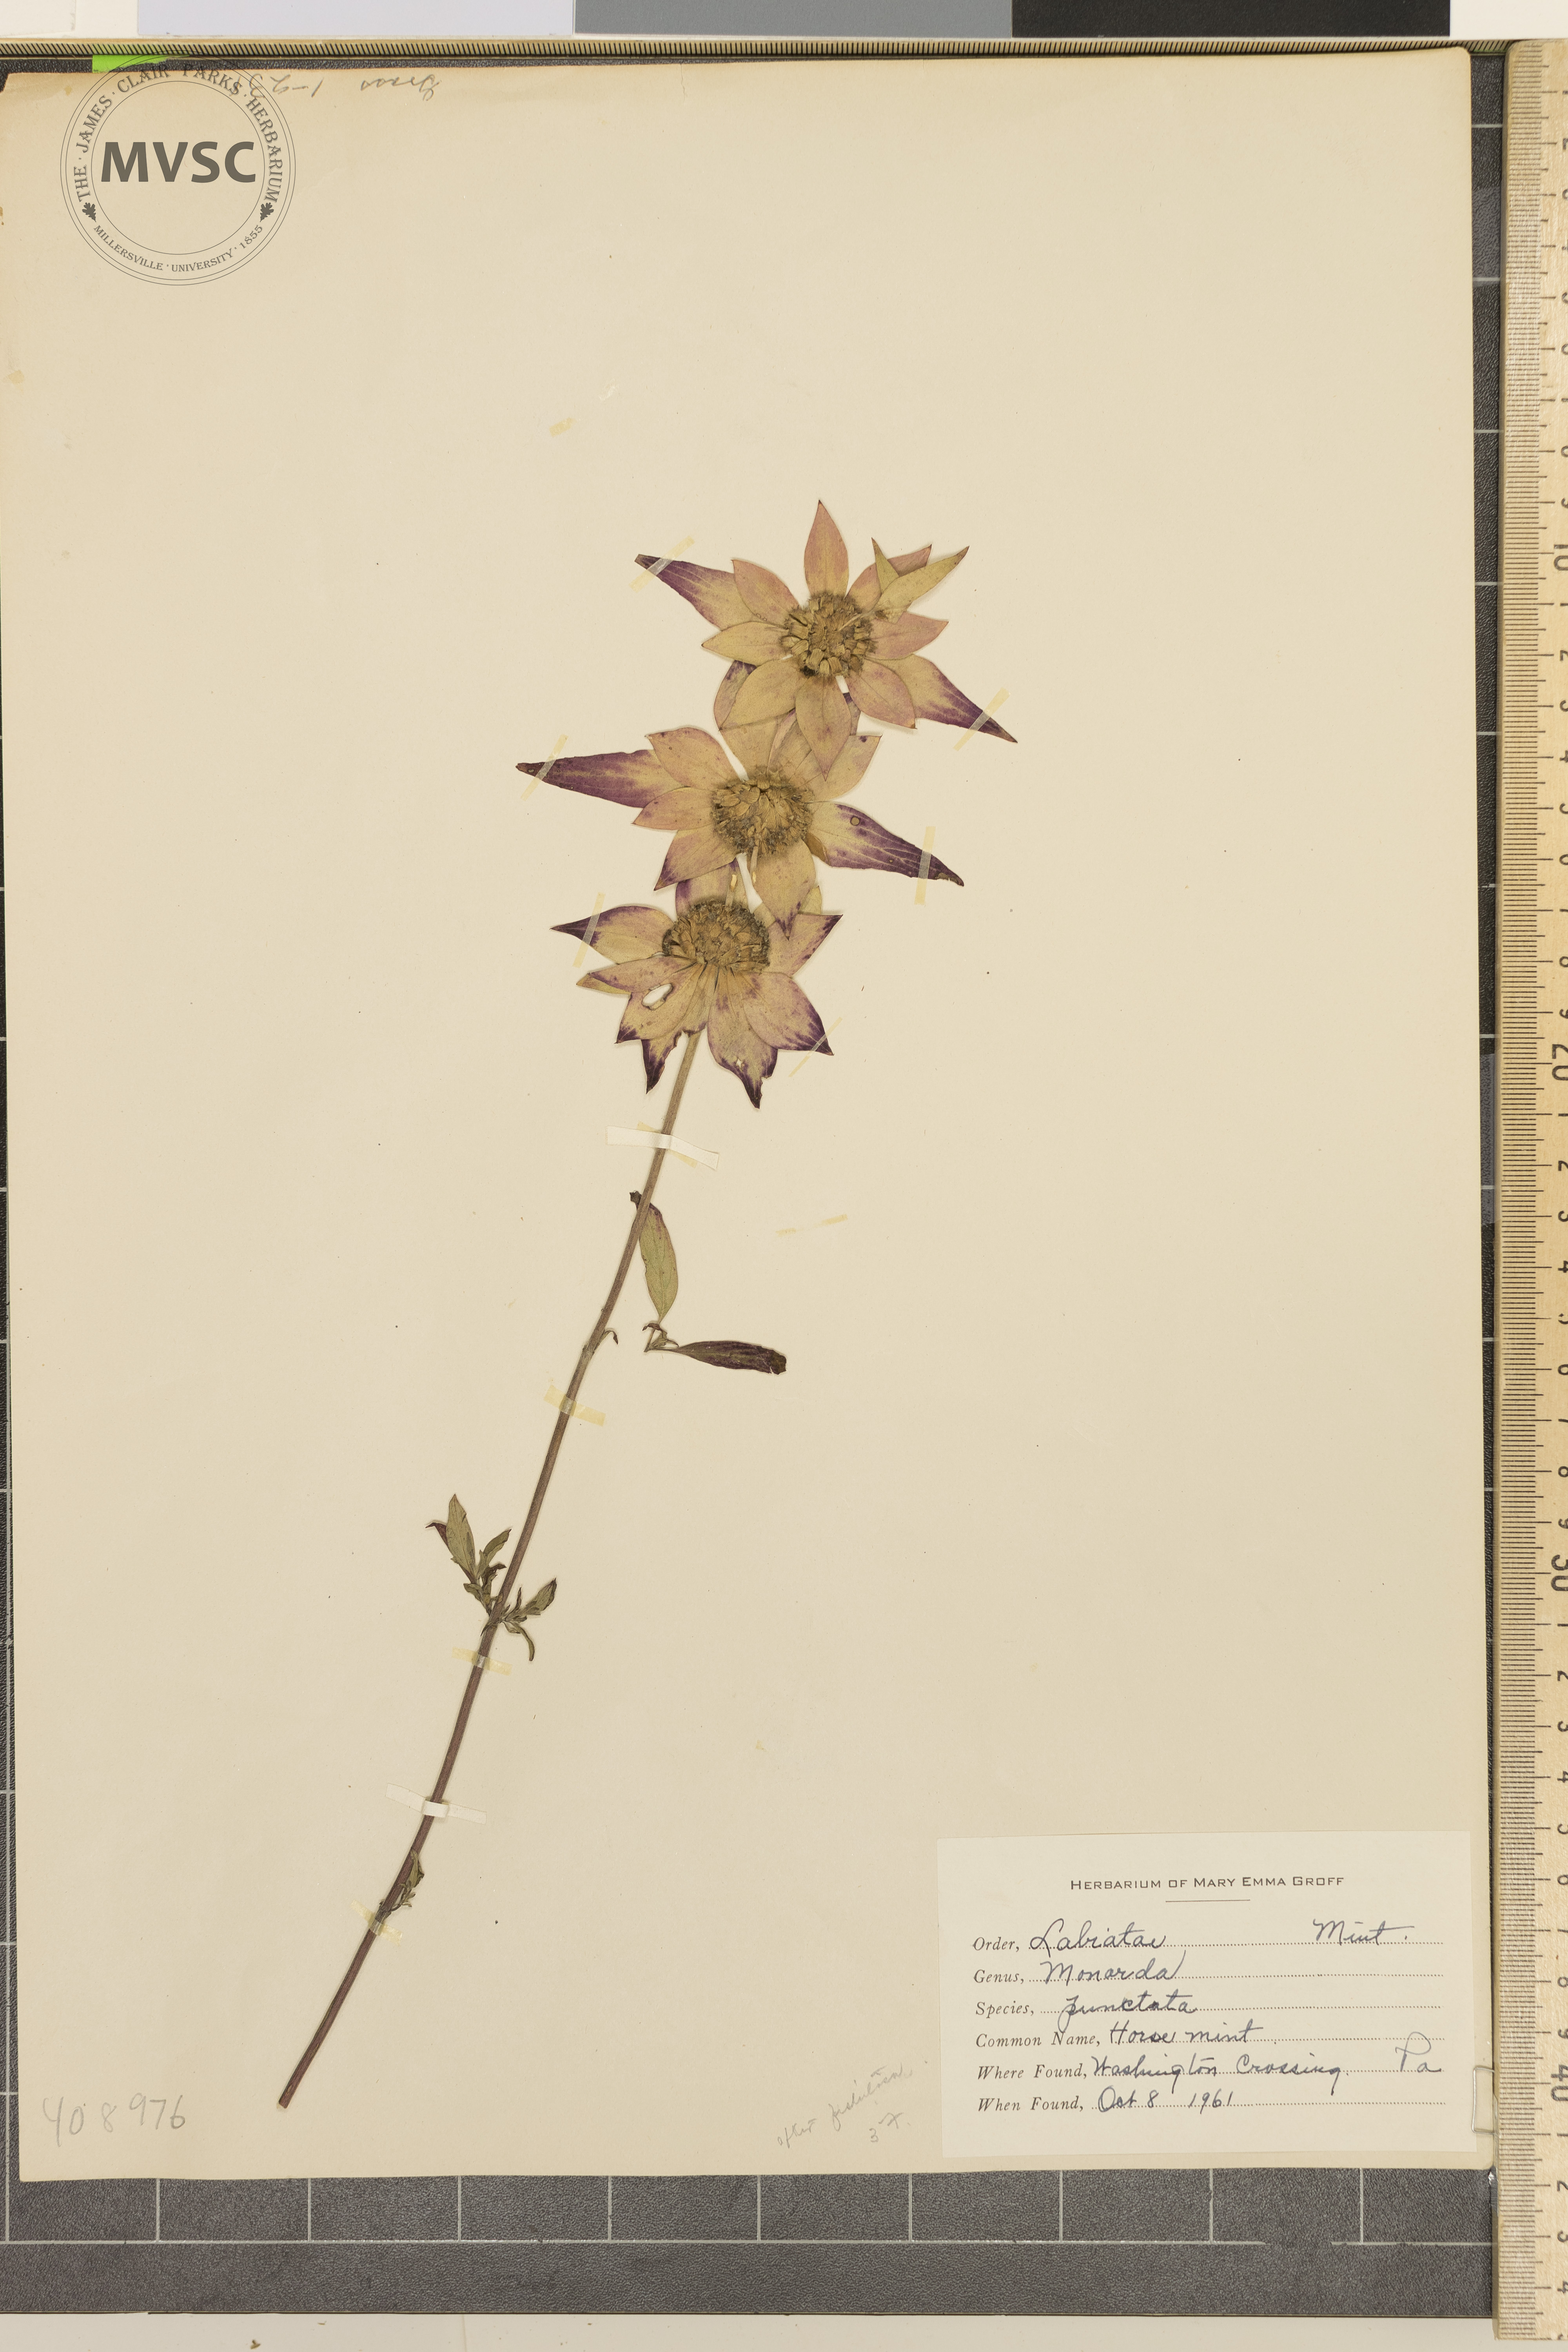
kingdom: Plantae
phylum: Tracheophyta
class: Magnoliopsida
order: Lamiales
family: Lamiaceae
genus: Monarda
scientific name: Monarda punctata
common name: horse mint
